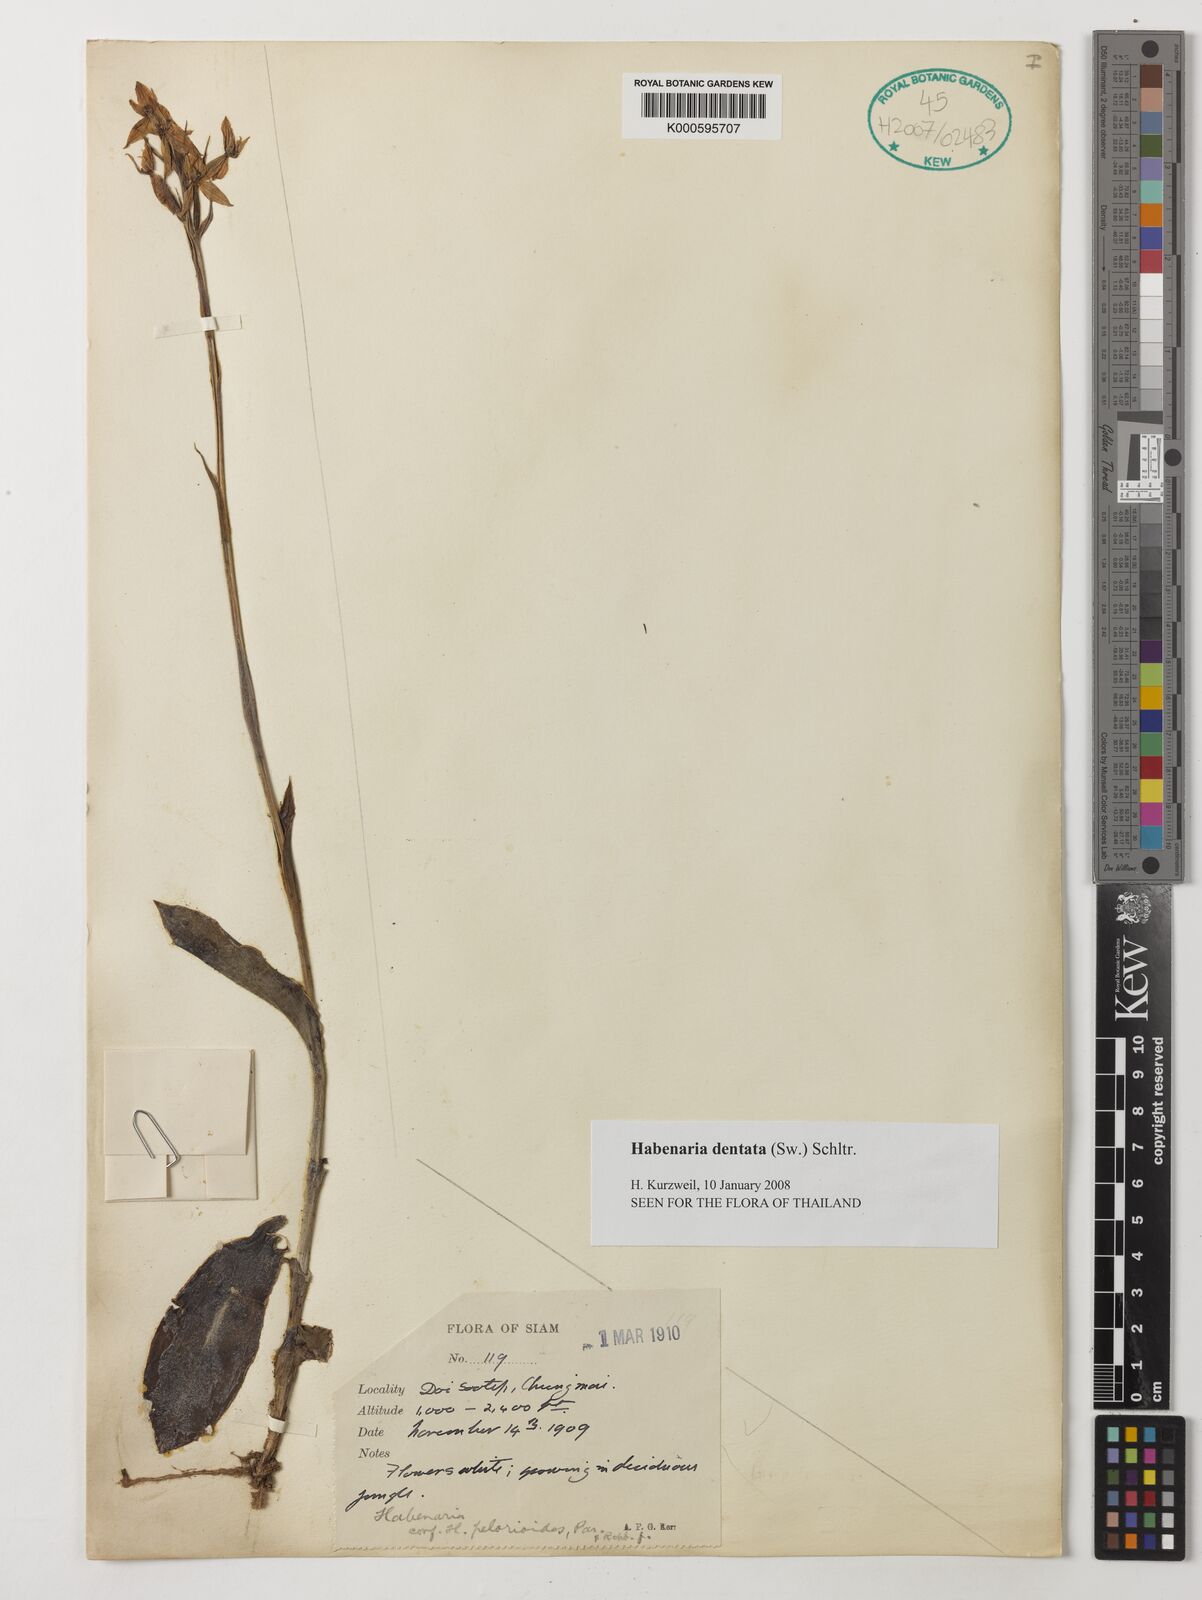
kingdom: Plantae
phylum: Tracheophyta
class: Liliopsida
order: Asparagales
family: Orchidaceae
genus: Habenaria
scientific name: Habenaria dentata
